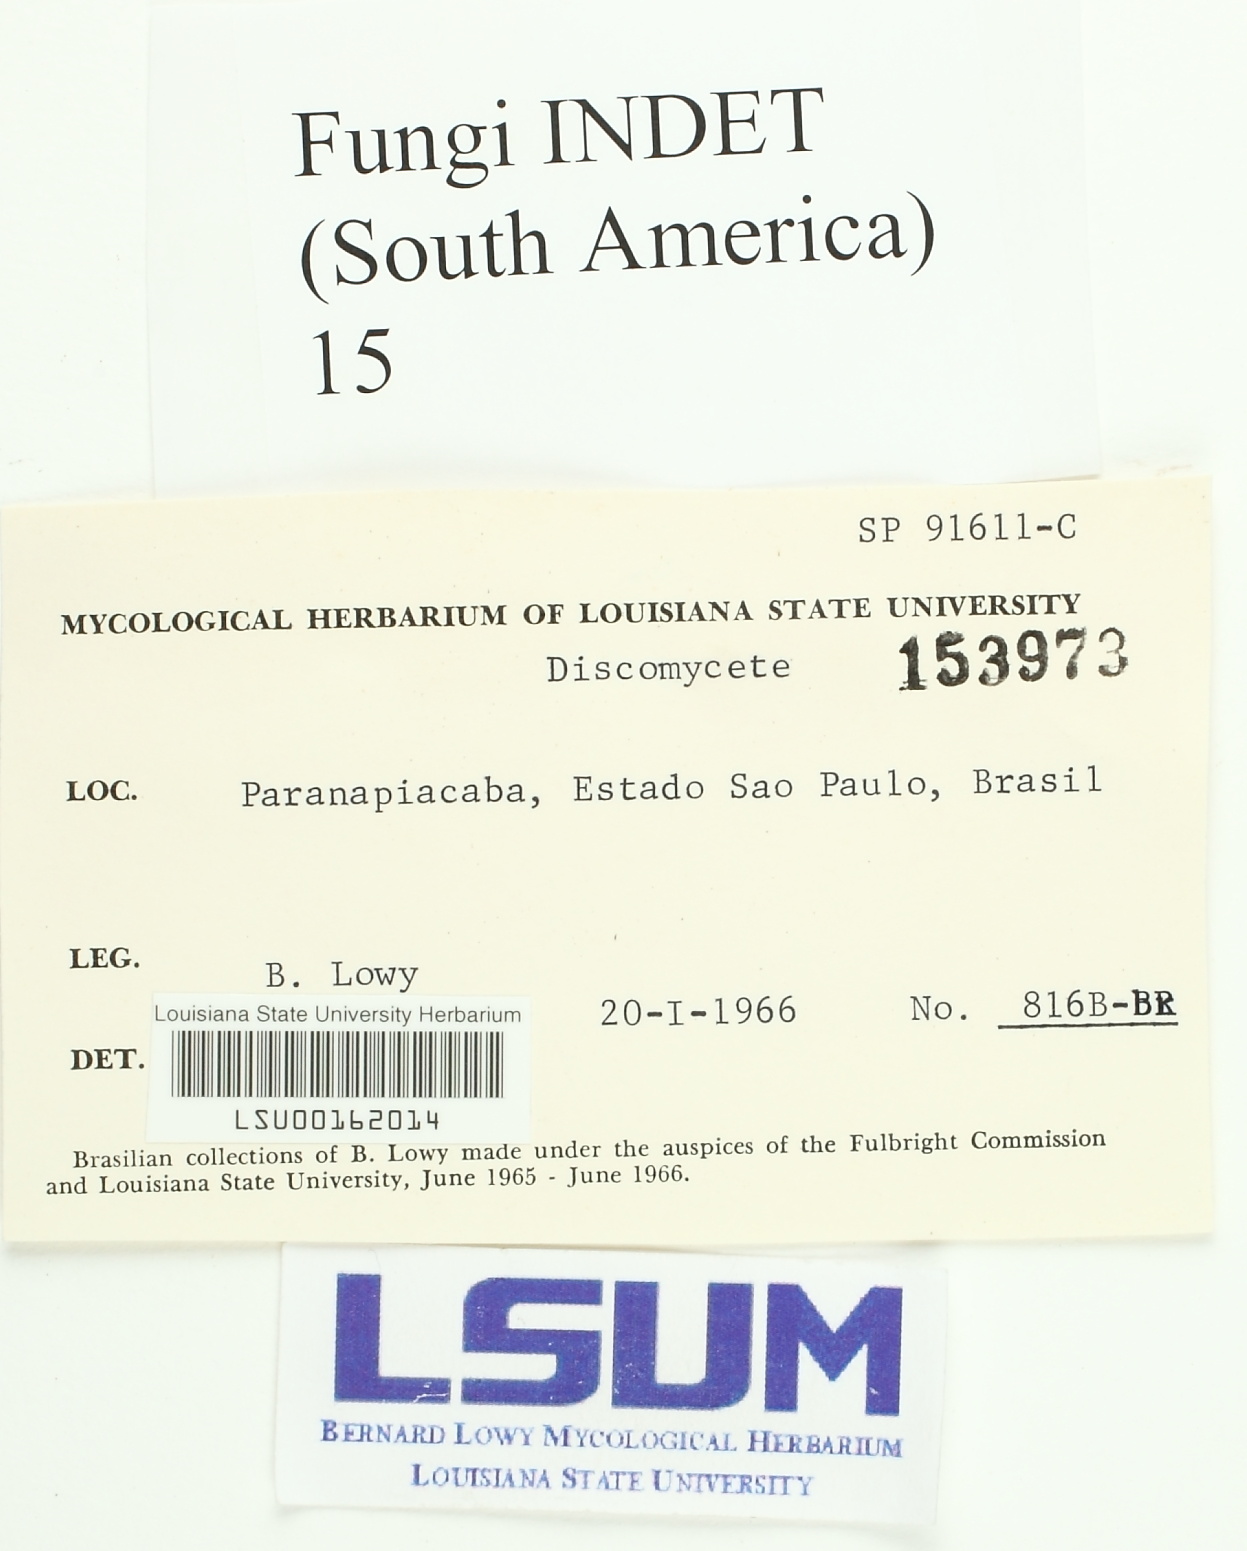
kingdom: Fungi
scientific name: Fungi
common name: Fungi
